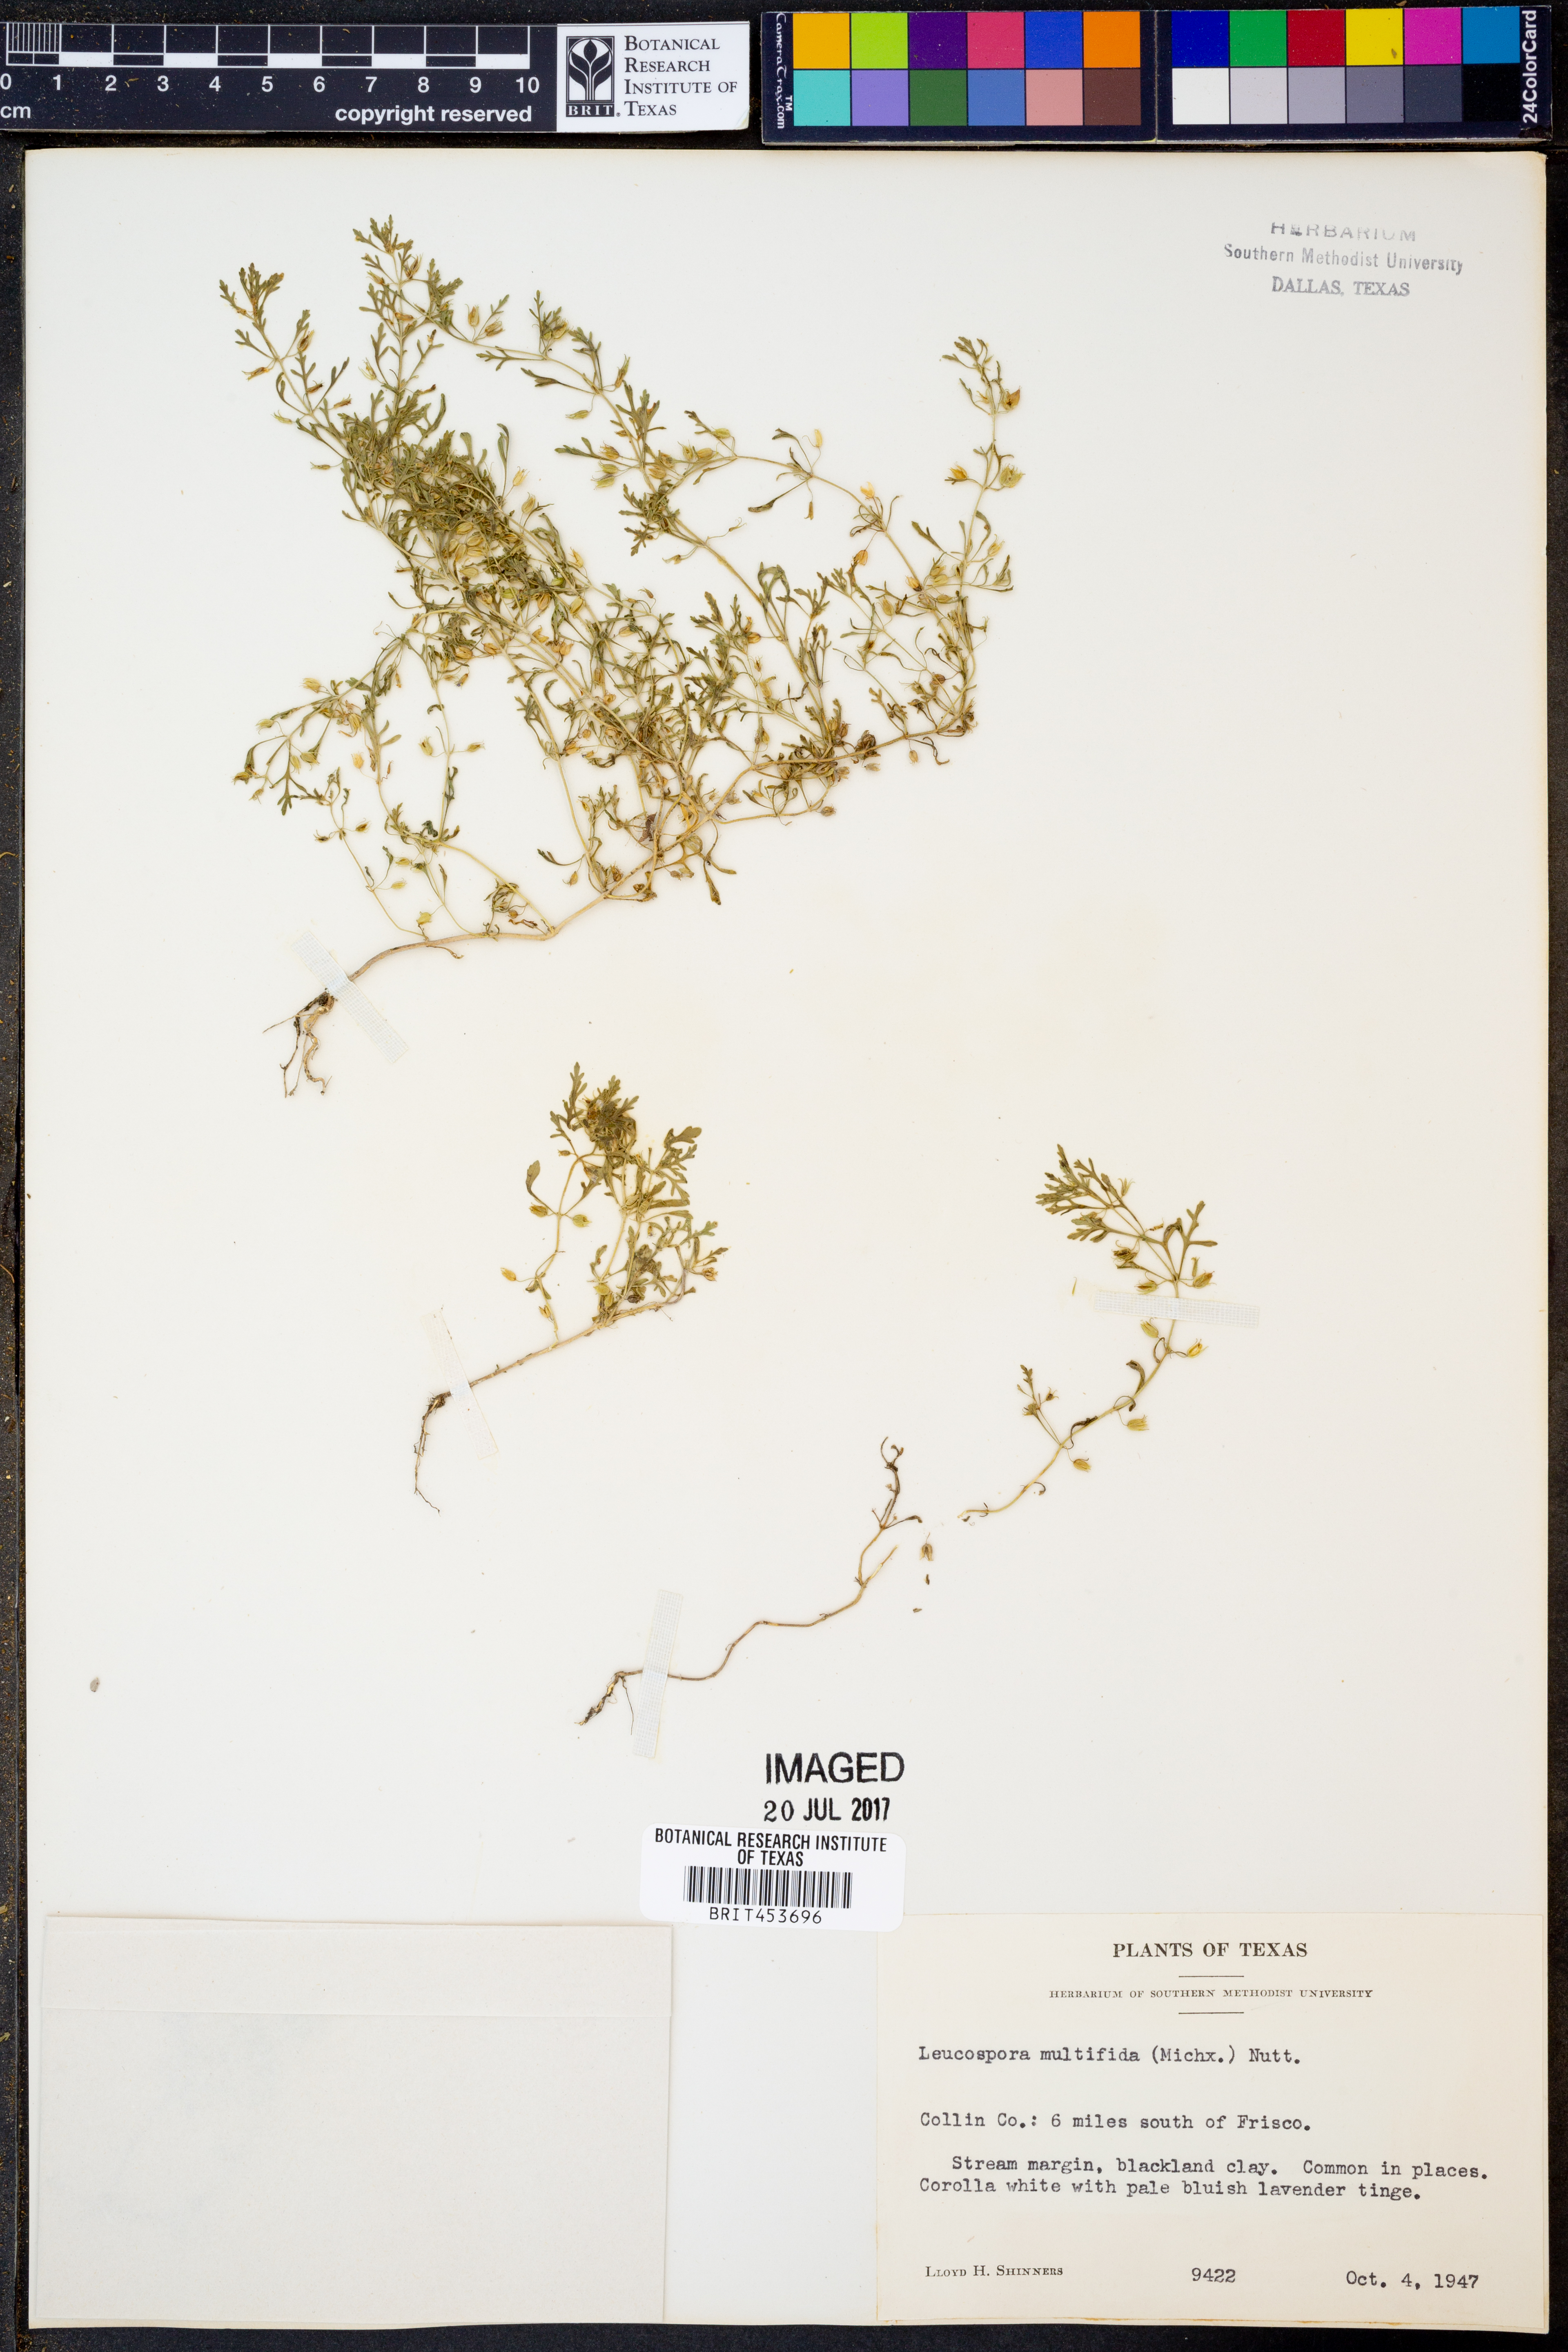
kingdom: Plantae
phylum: Tracheophyta
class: Magnoliopsida
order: Lamiales
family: Plantaginaceae
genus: Leucospora
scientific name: Leucospora multifida
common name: Narrow-leaf paleseed
